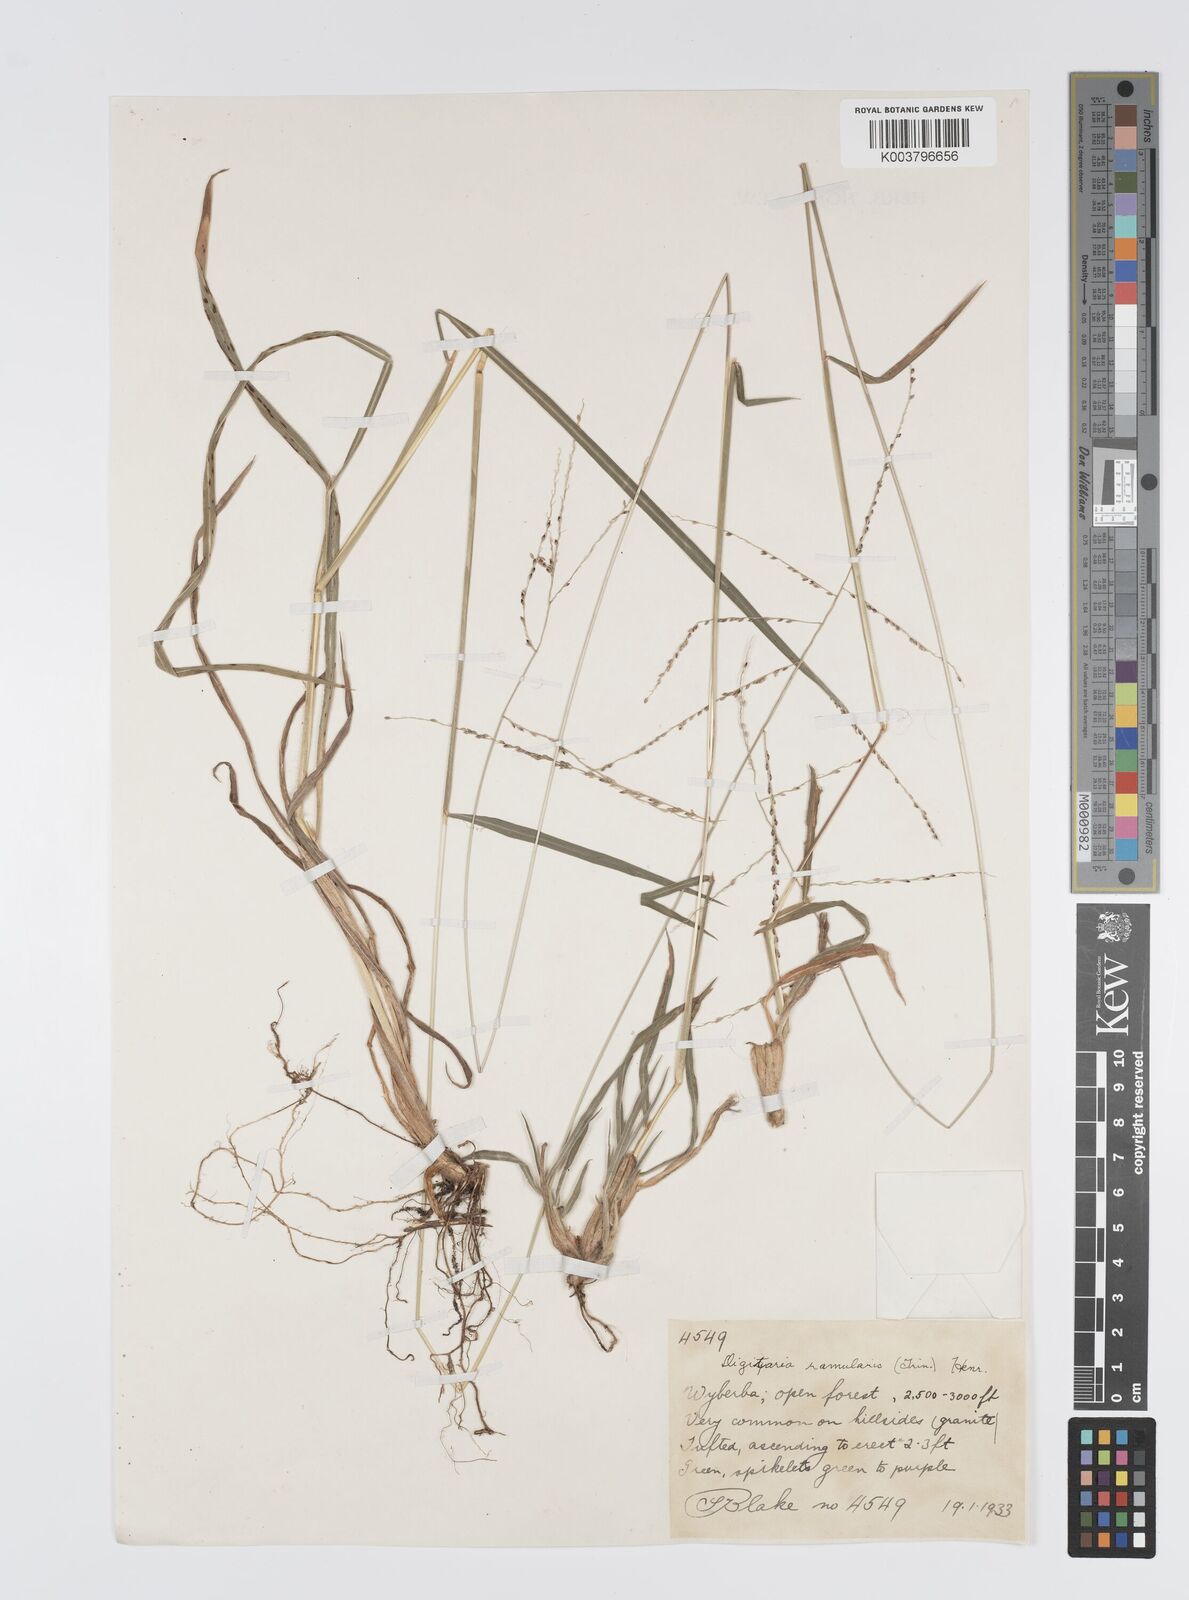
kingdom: Plantae
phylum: Tracheophyta
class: Liliopsida
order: Poales
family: Poaceae
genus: Digitaria
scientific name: Digitaria ramularis
